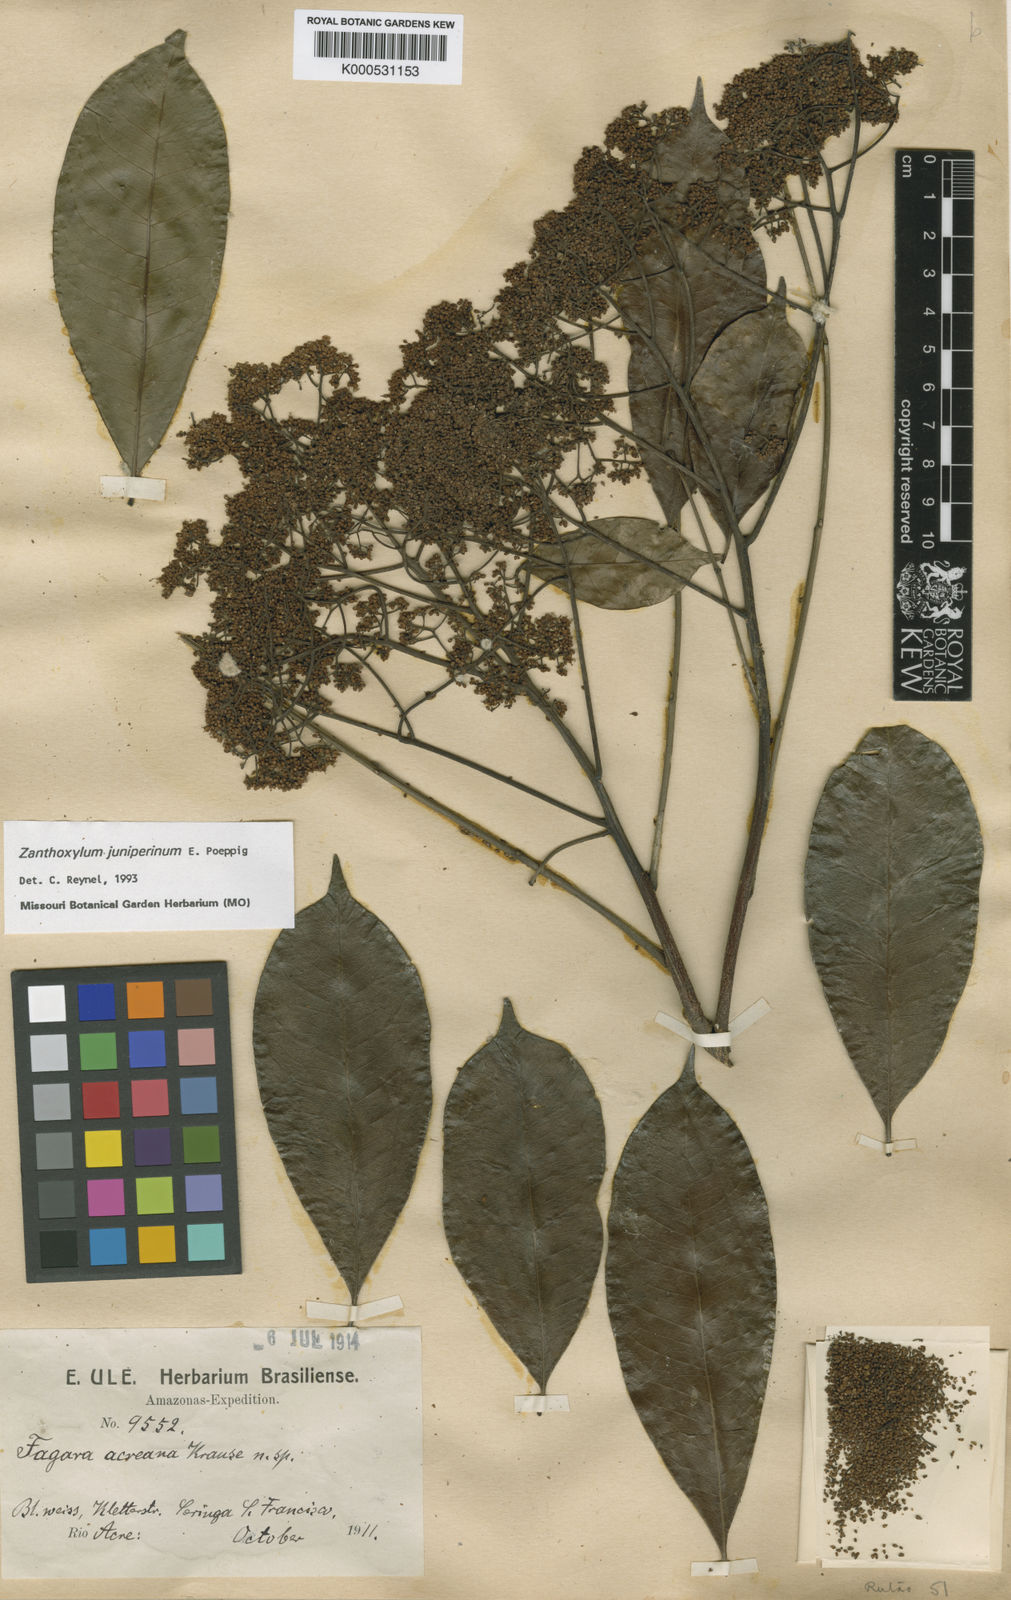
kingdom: Plantae
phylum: Tracheophyta
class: Magnoliopsida
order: Sapindales
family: Rutaceae
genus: Zanthoxylum
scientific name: Zanthoxylum acuminatum
